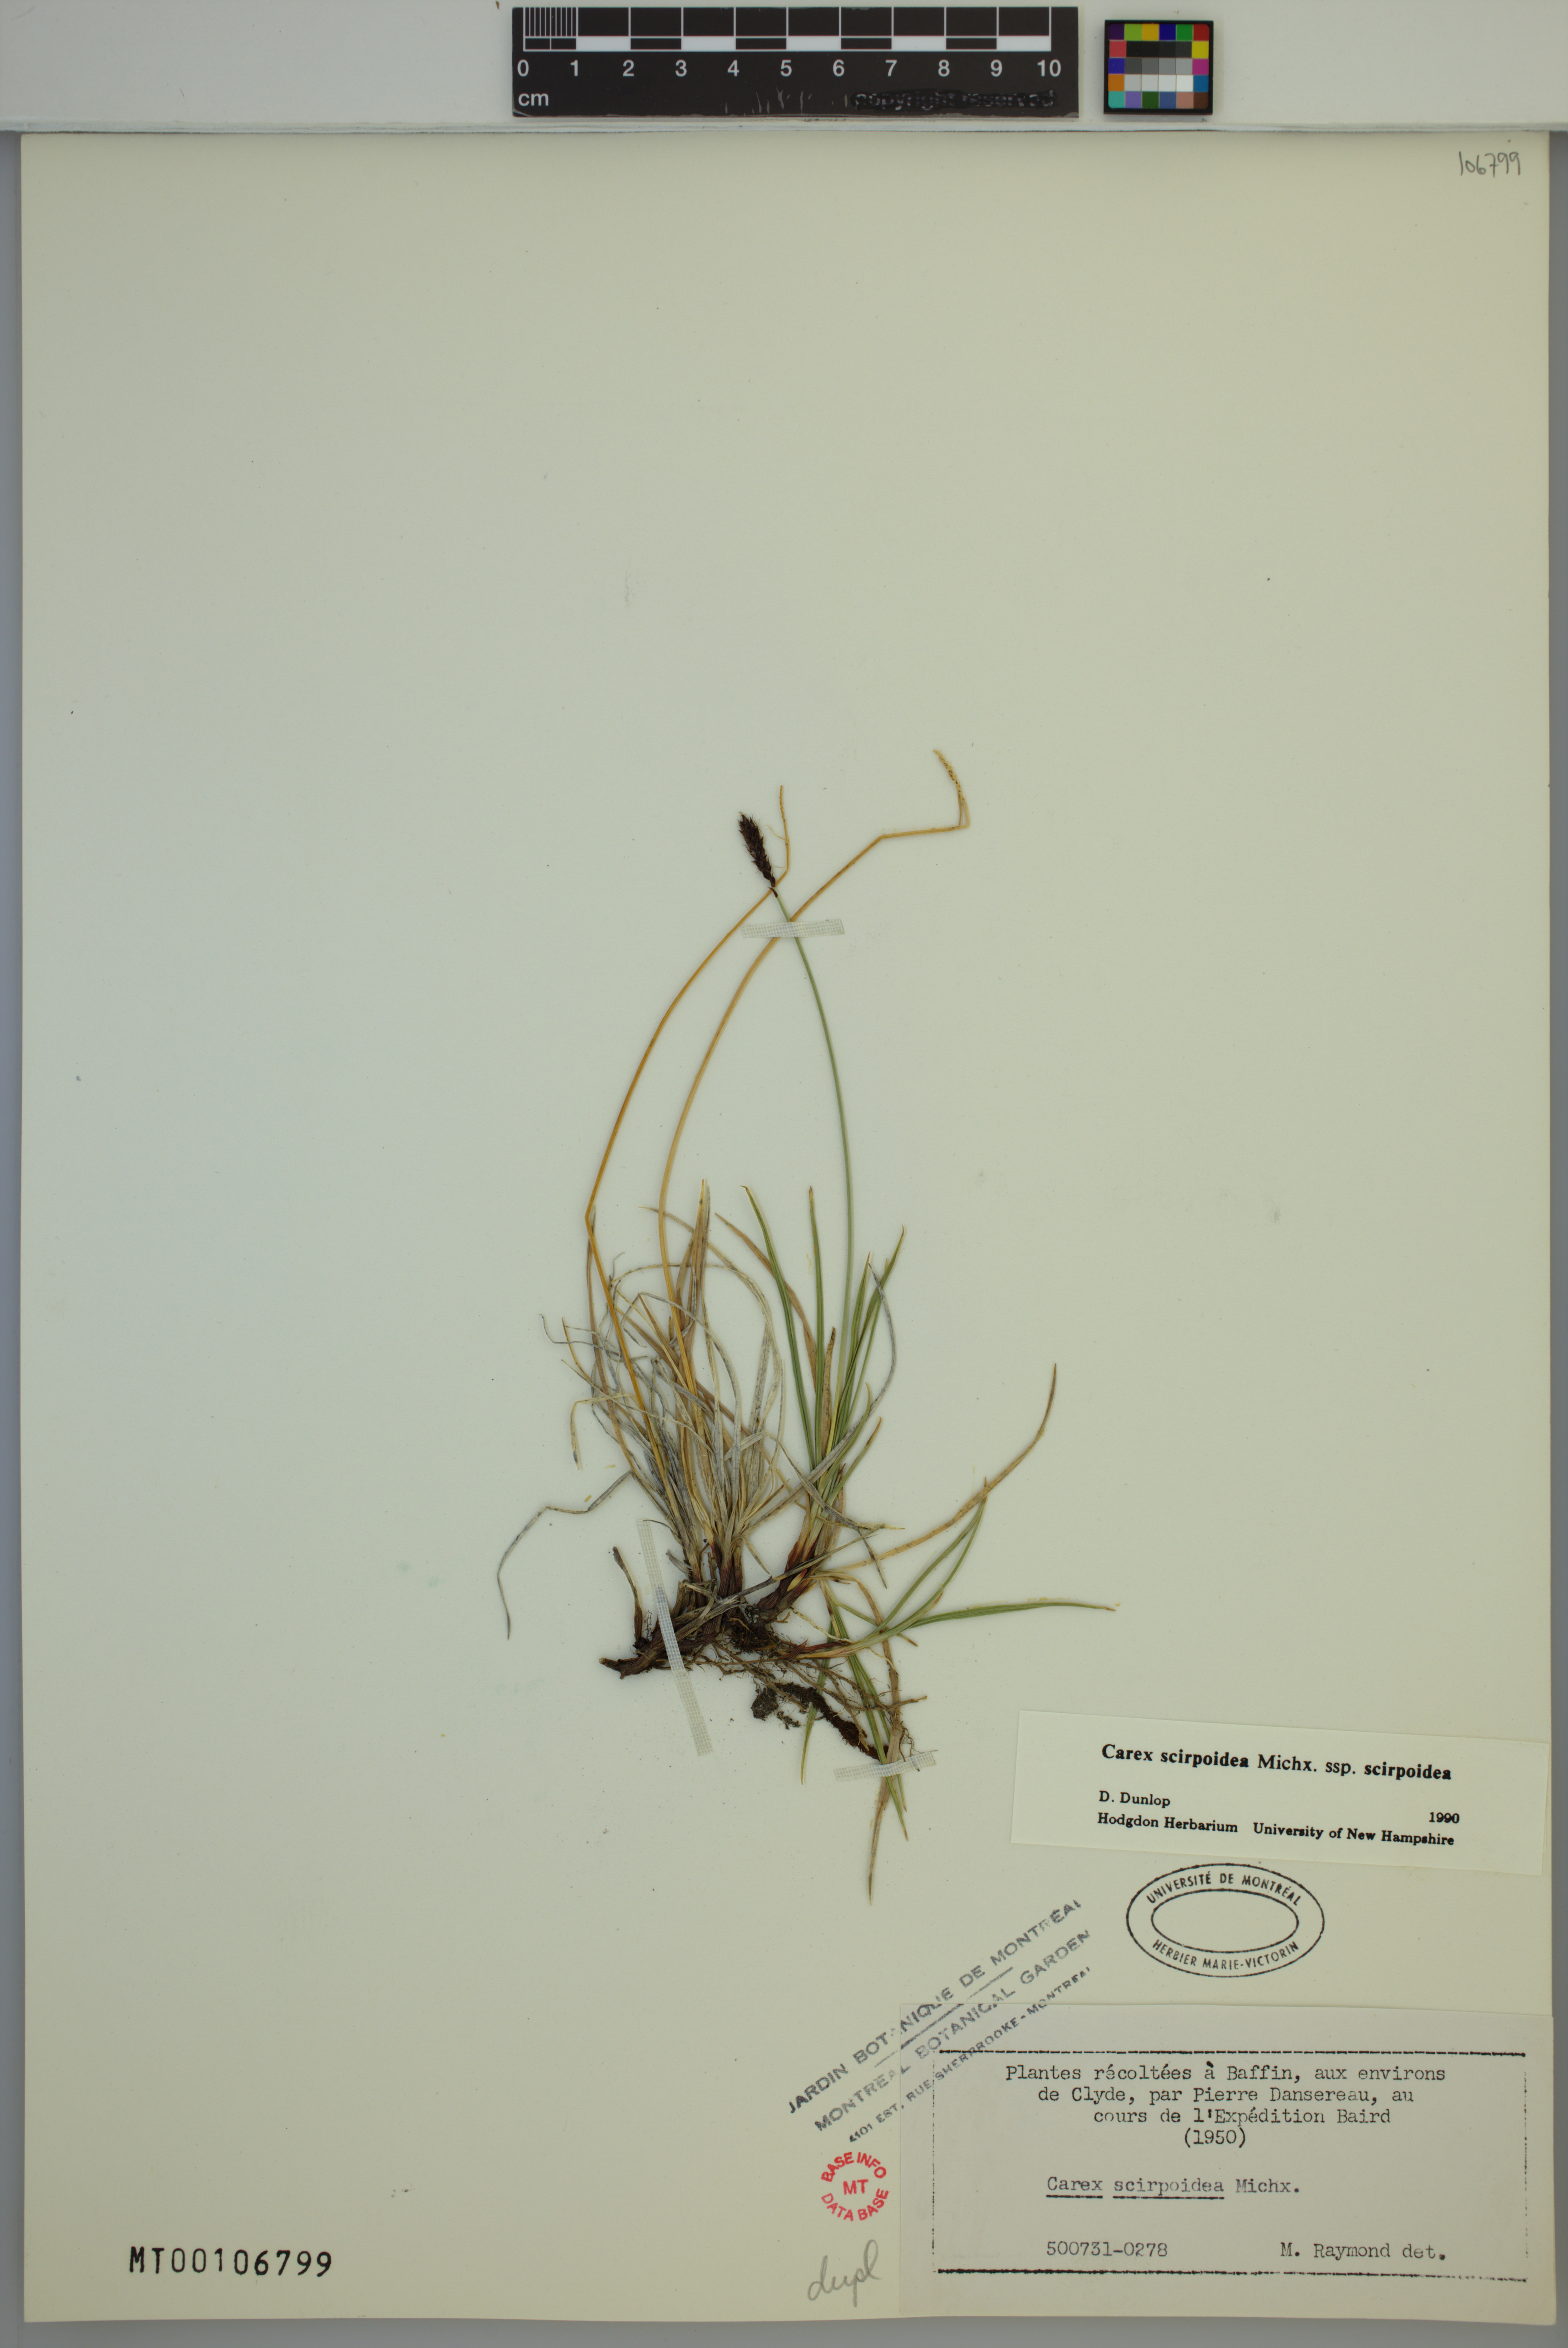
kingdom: Plantae
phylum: Tracheophyta
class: Liliopsida
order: Poales
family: Cyperaceae
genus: Carex
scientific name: Carex scirpoidea
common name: Canada single-spike sedge
